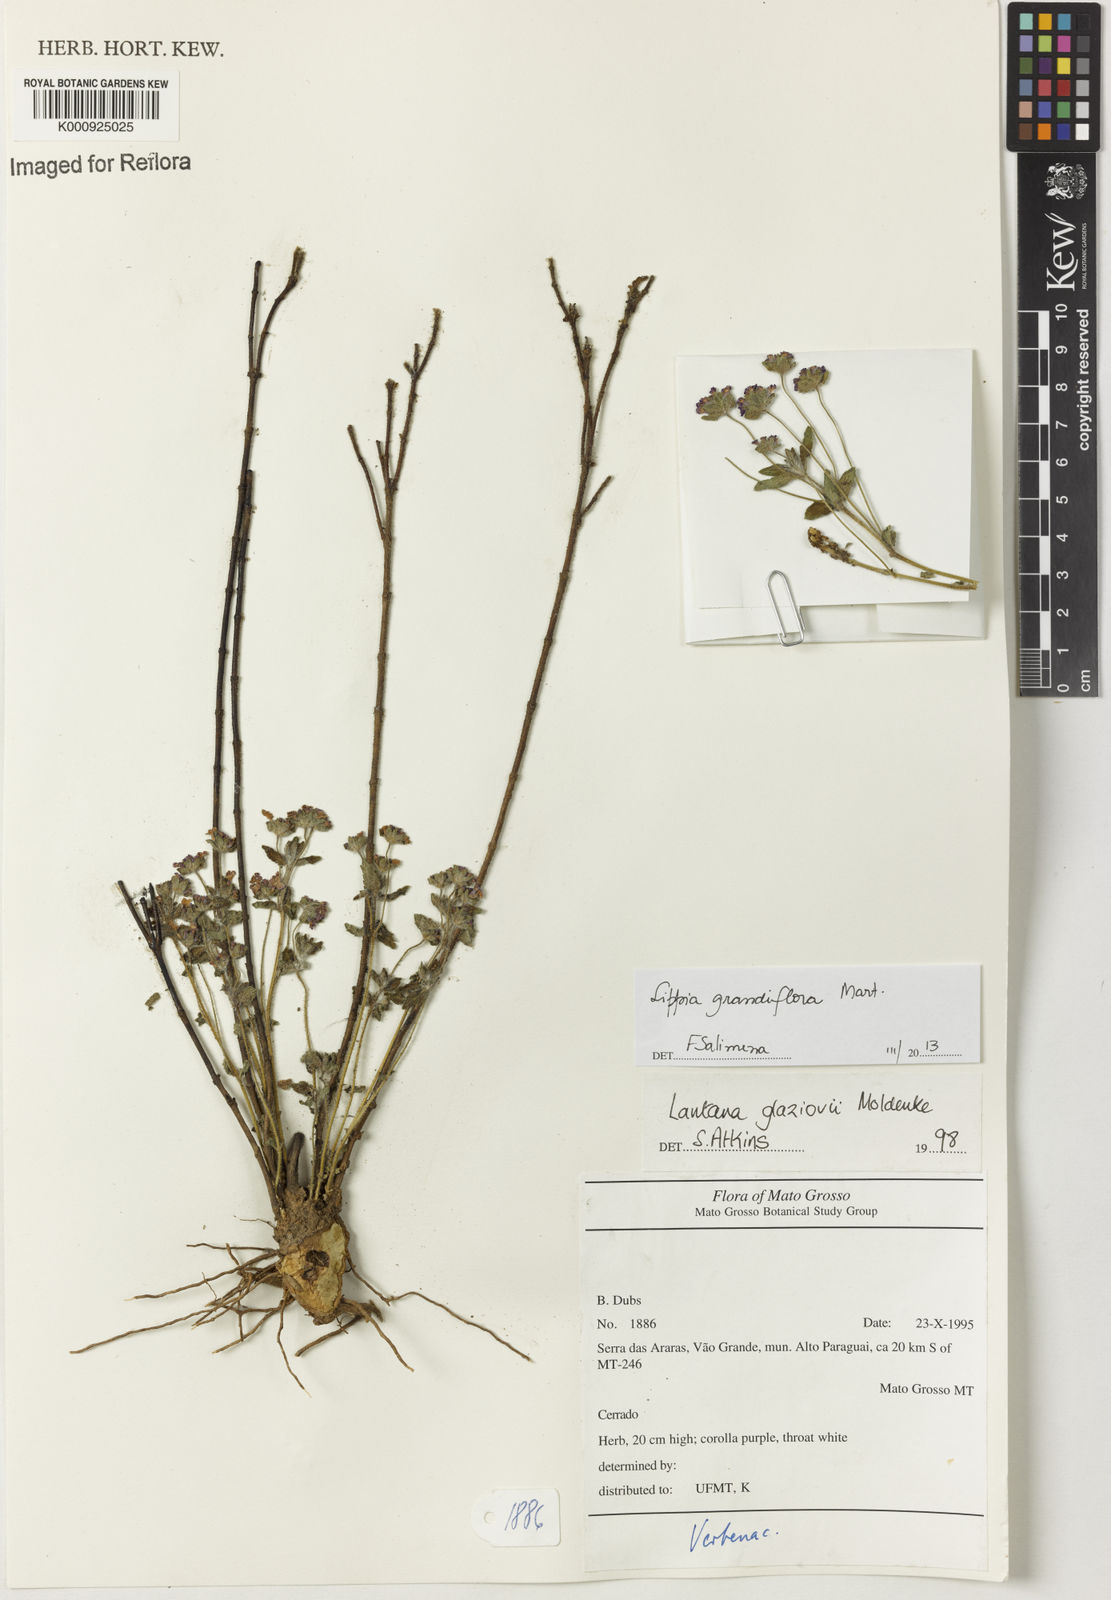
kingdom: Plantae
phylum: Tracheophyta
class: Magnoliopsida
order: Lamiales
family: Verbenaceae
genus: Lippia
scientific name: Lippia grandiflora
